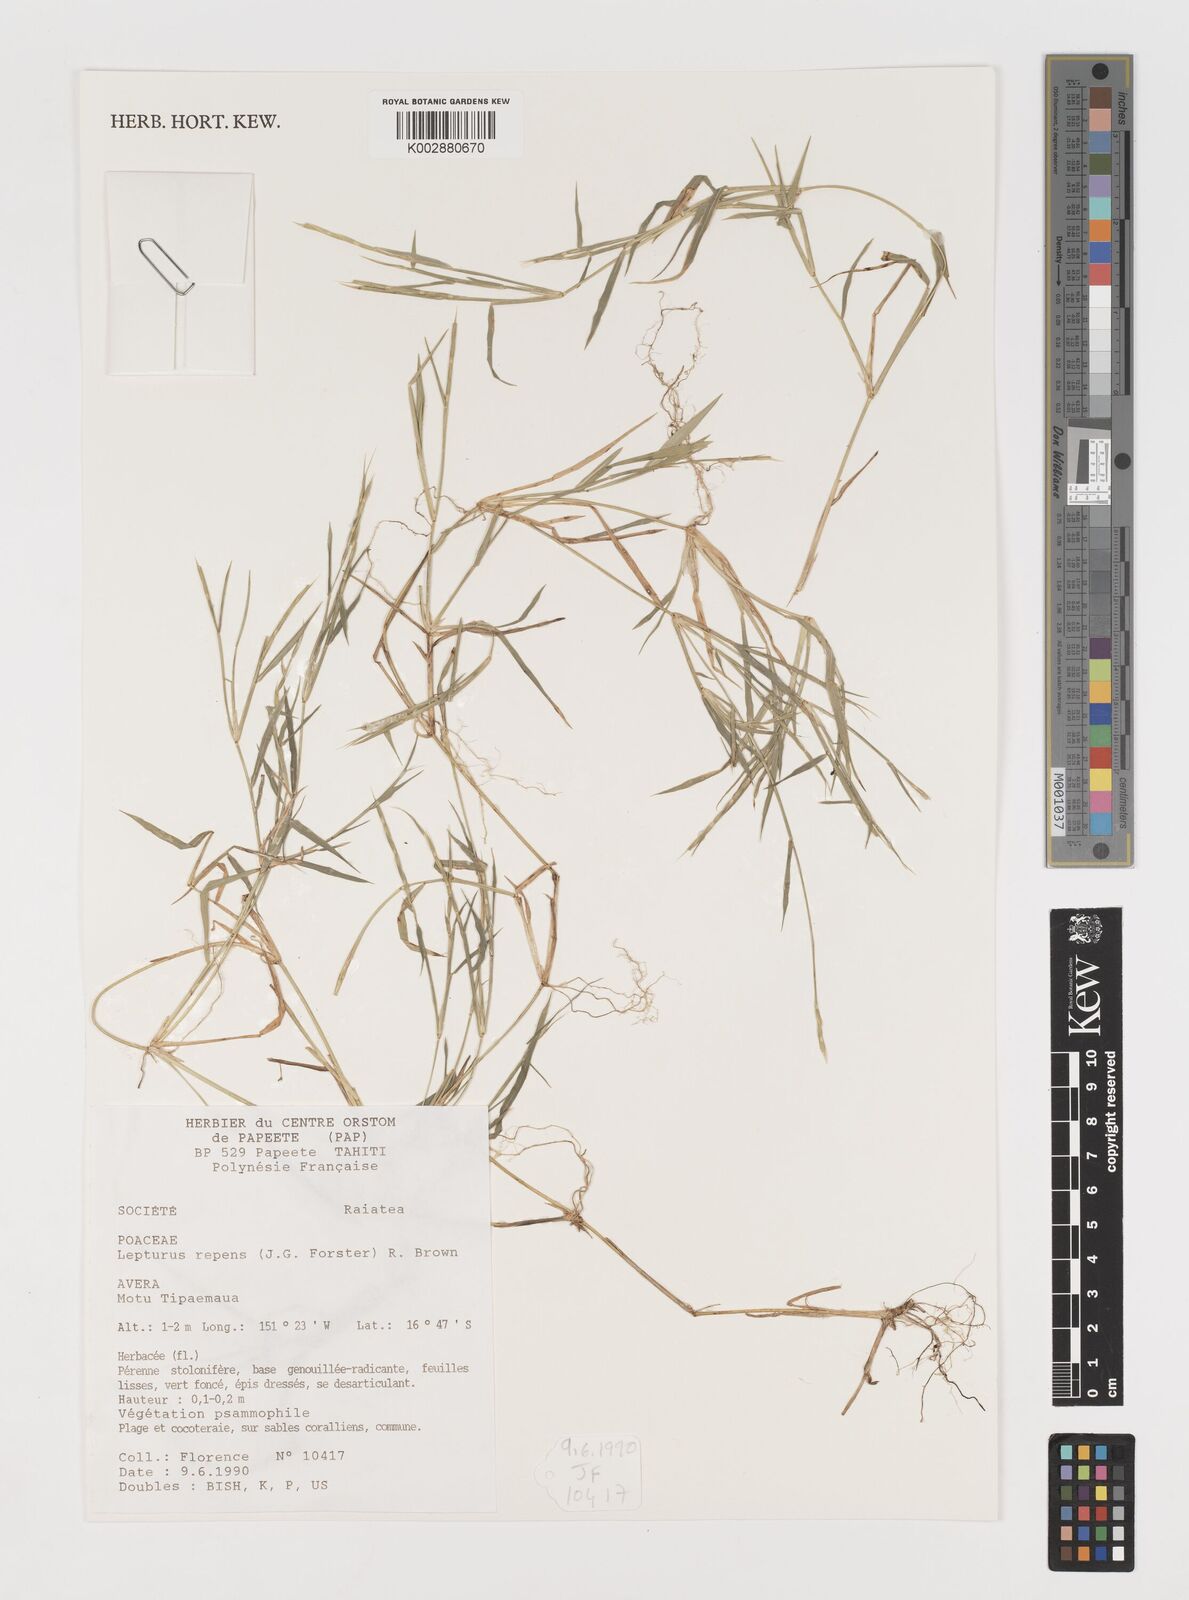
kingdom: Plantae
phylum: Tracheophyta
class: Liliopsida
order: Poales
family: Poaceae
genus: Lepturus
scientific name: Lepturus repens
